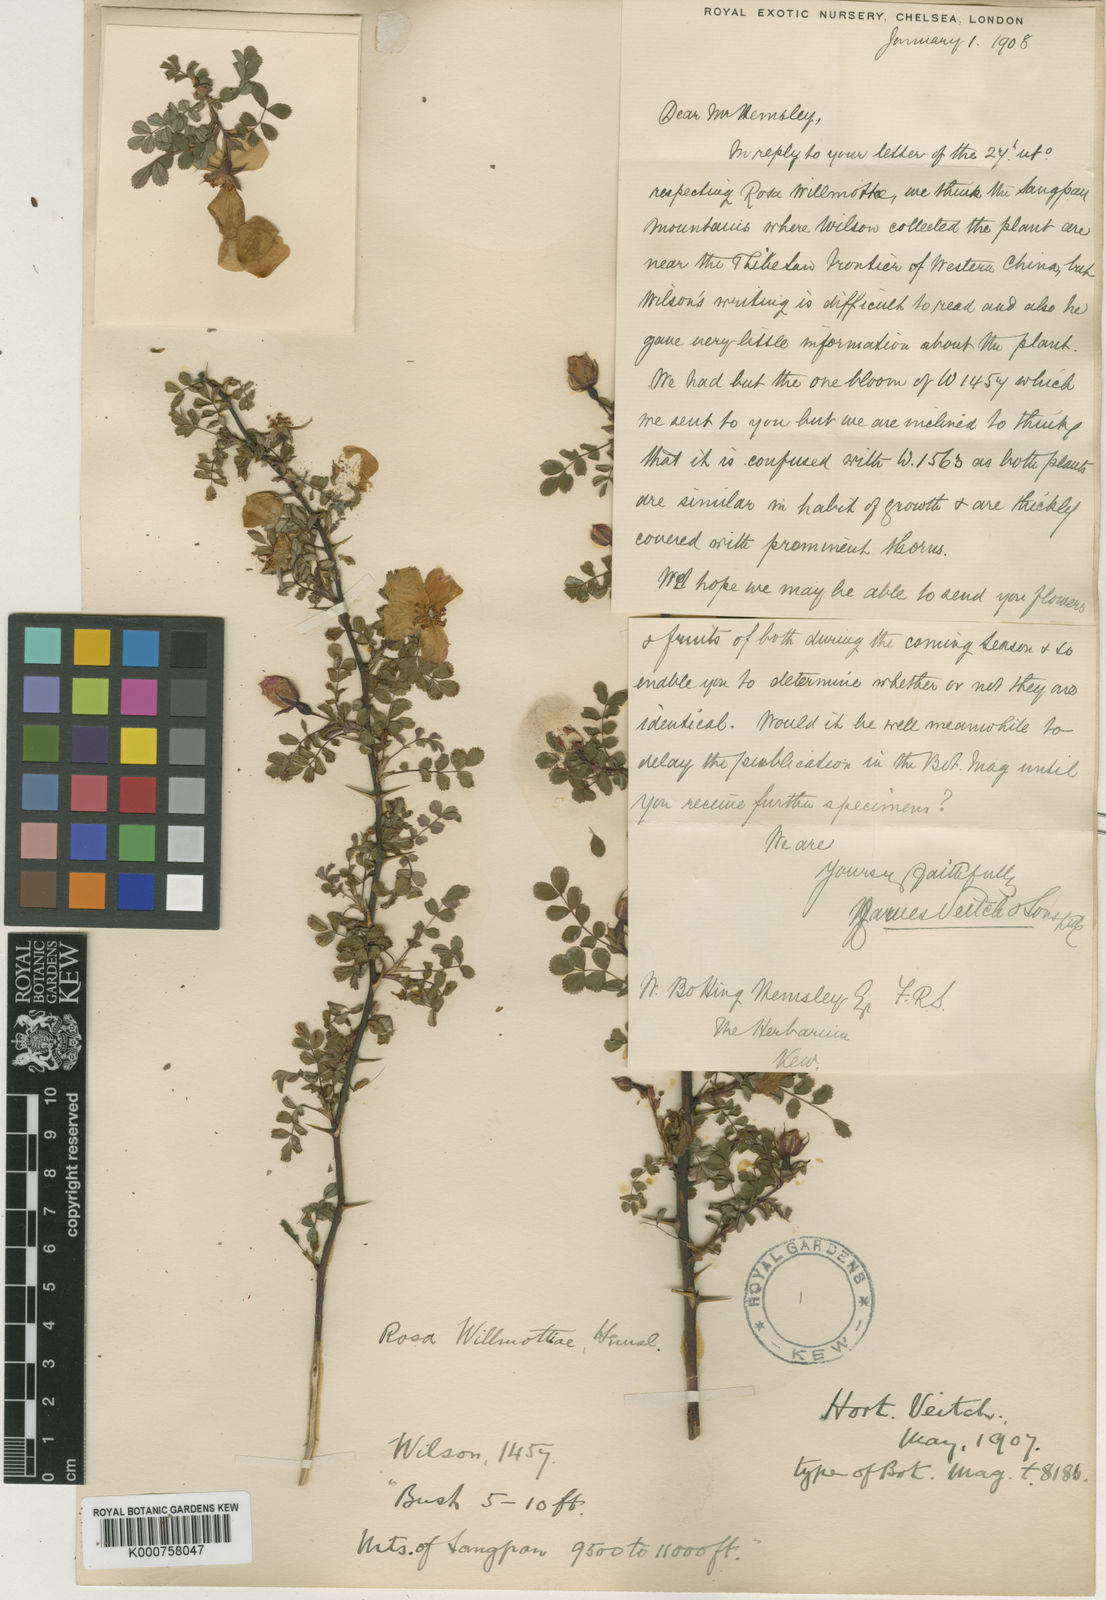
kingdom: Plantae
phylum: Tracheophyta
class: Magnoliopsida
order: Rosales
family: Rosaceae
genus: Rosa
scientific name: Rosa willmottiae
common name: Willmott's rose
